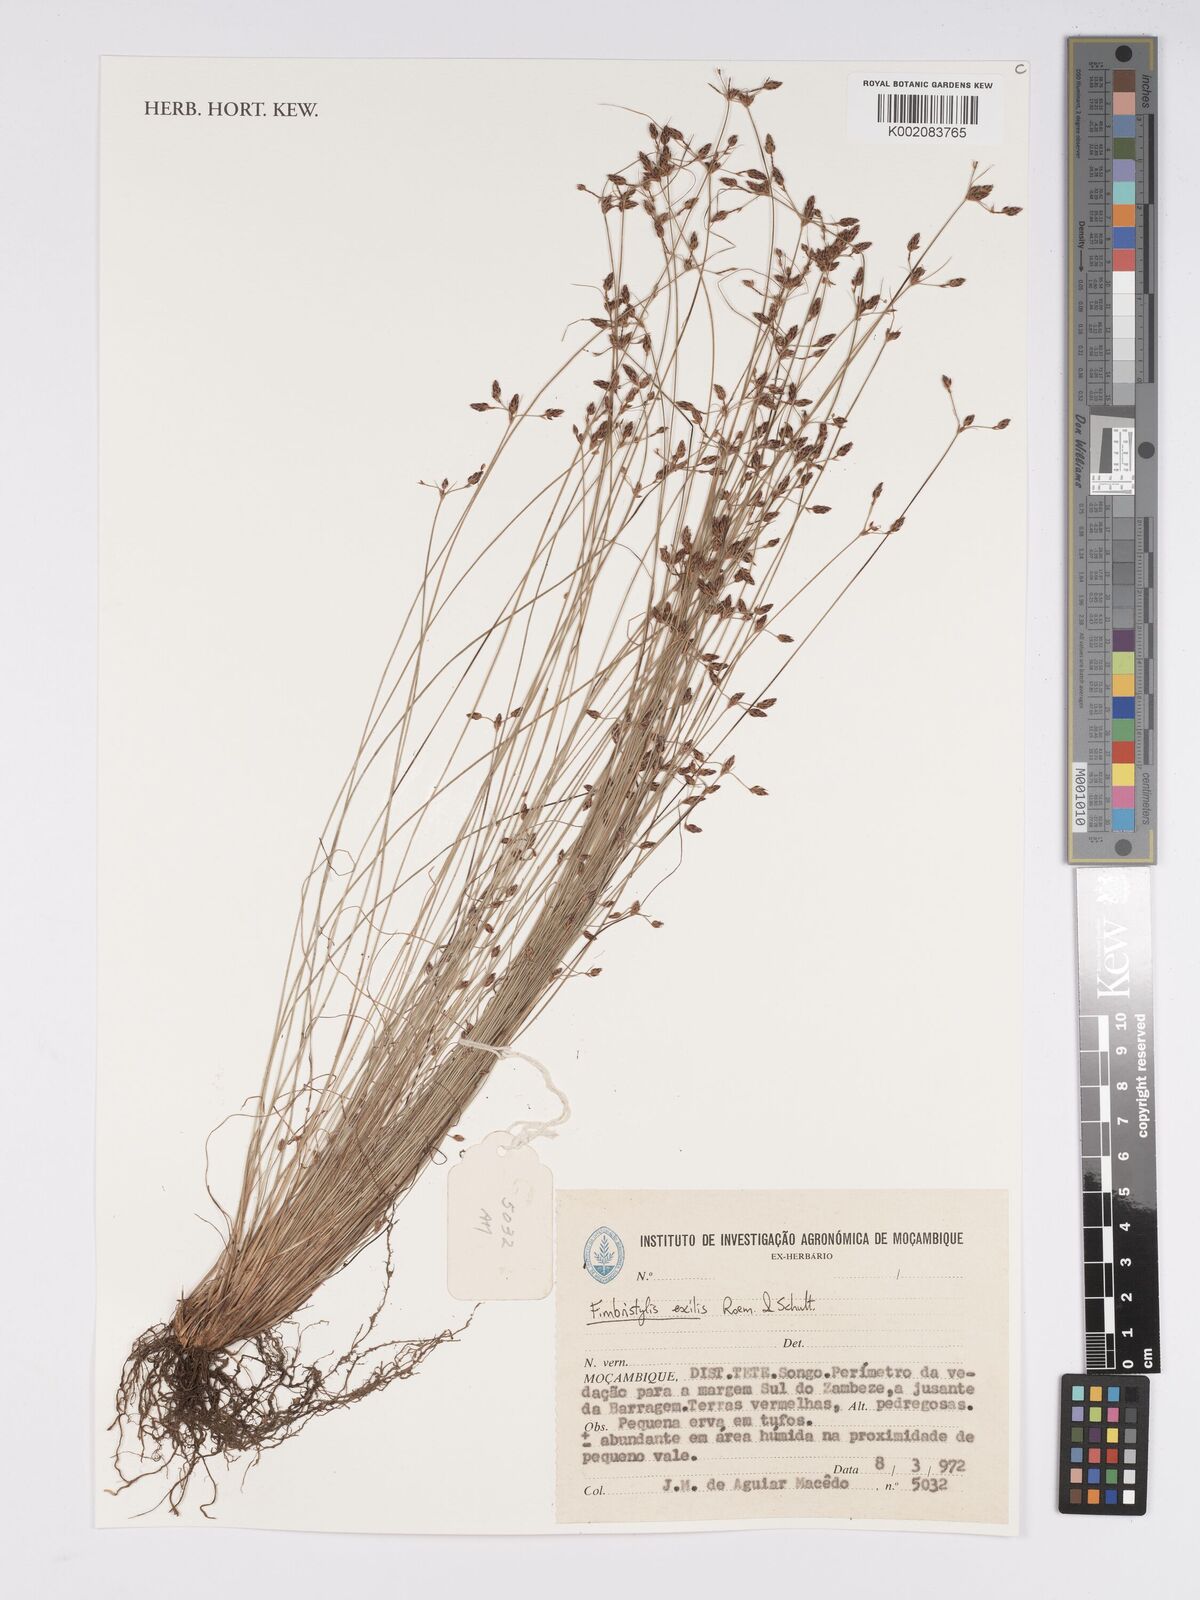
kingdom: Plantae
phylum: Tracheophyta
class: Liliopsida
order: Poales
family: Cyperaceae
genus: Bulbostylis
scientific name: Bulbostylis hispidula
